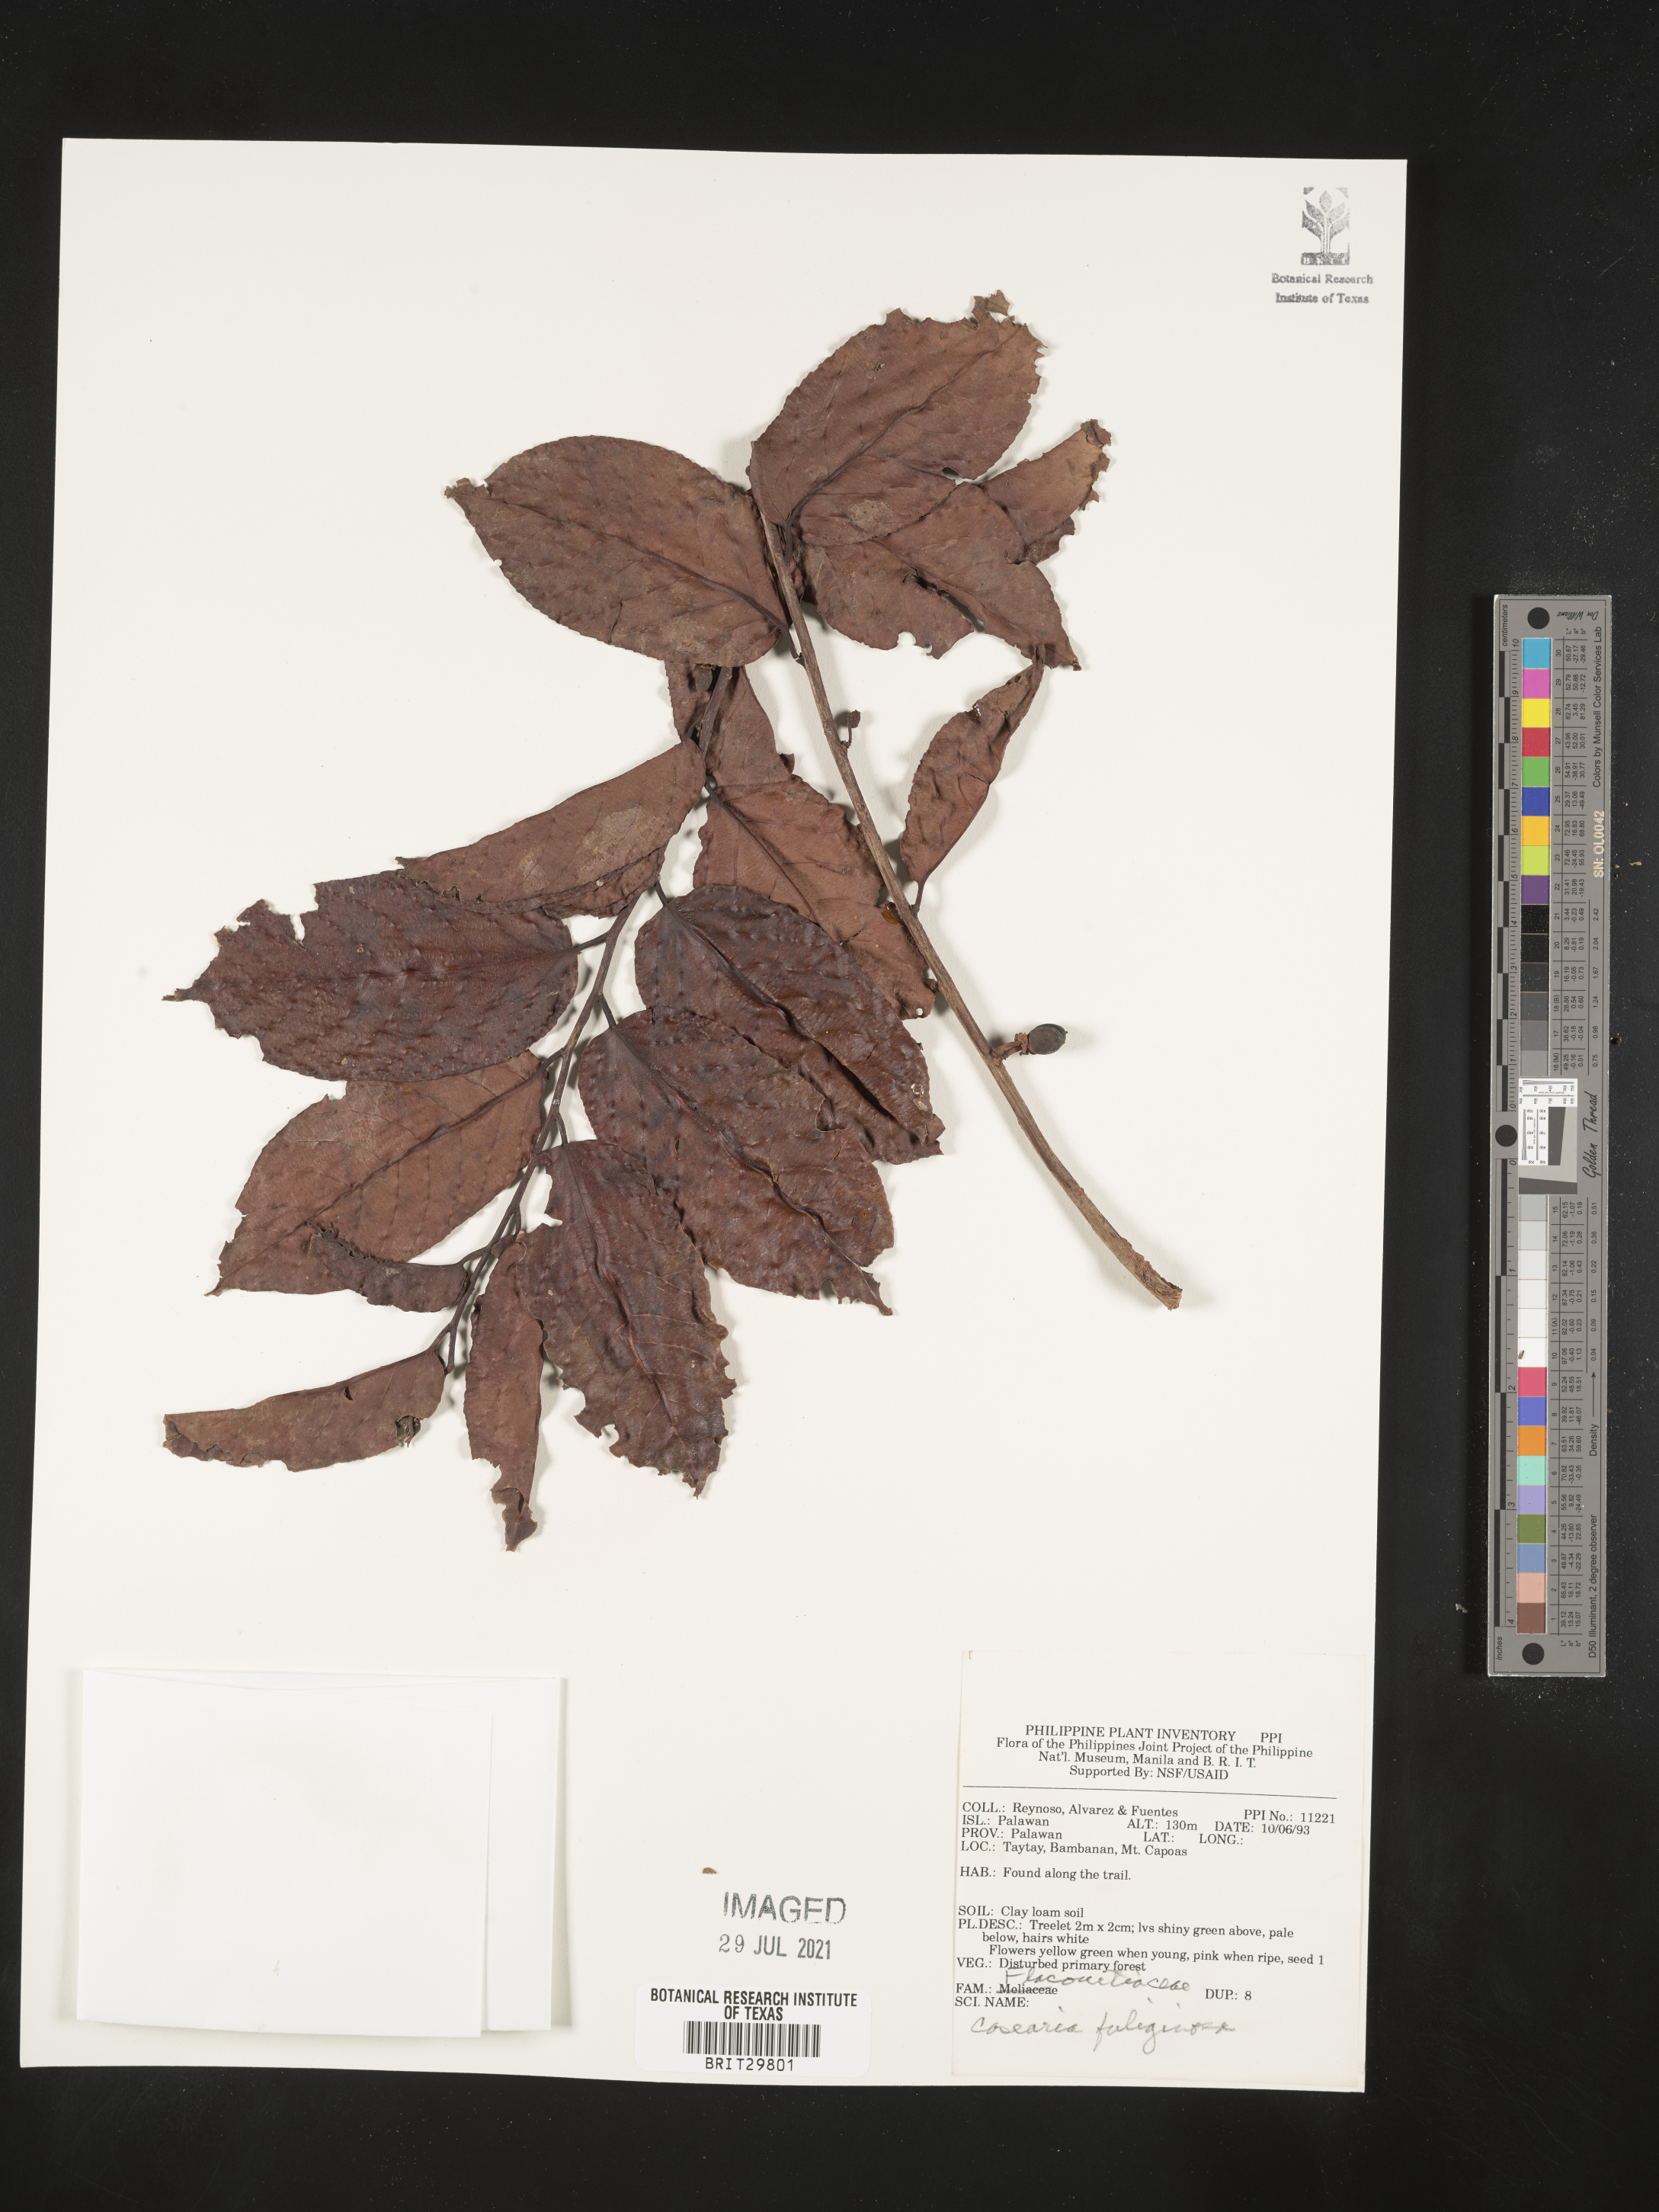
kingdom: Plantae
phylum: Tracheophyta
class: Magnoliopsida
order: Malpighiales
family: Salicaceae
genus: Casearia
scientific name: Casearia fuliginosa
